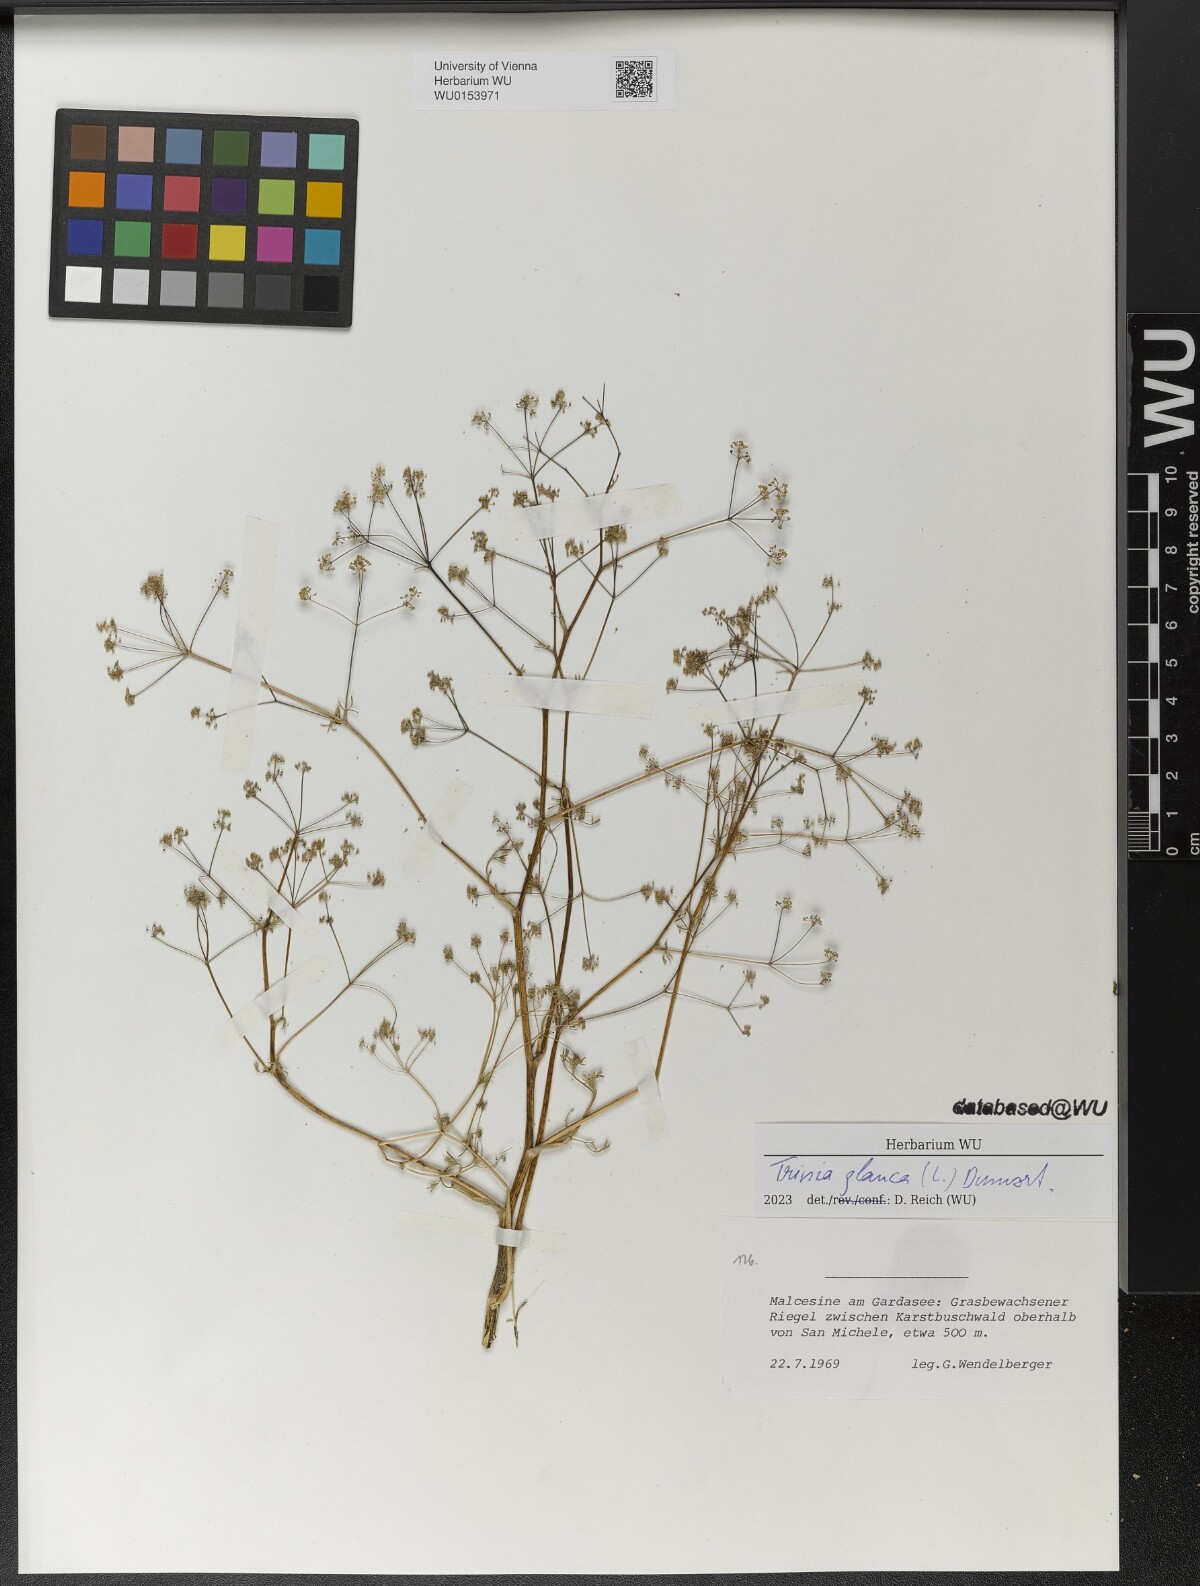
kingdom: Plantae
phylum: Tracheophyta
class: Magnoliopsida
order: Apiales
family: Apiaceae
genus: Trinia
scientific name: Trinia glauca
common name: Honewort
